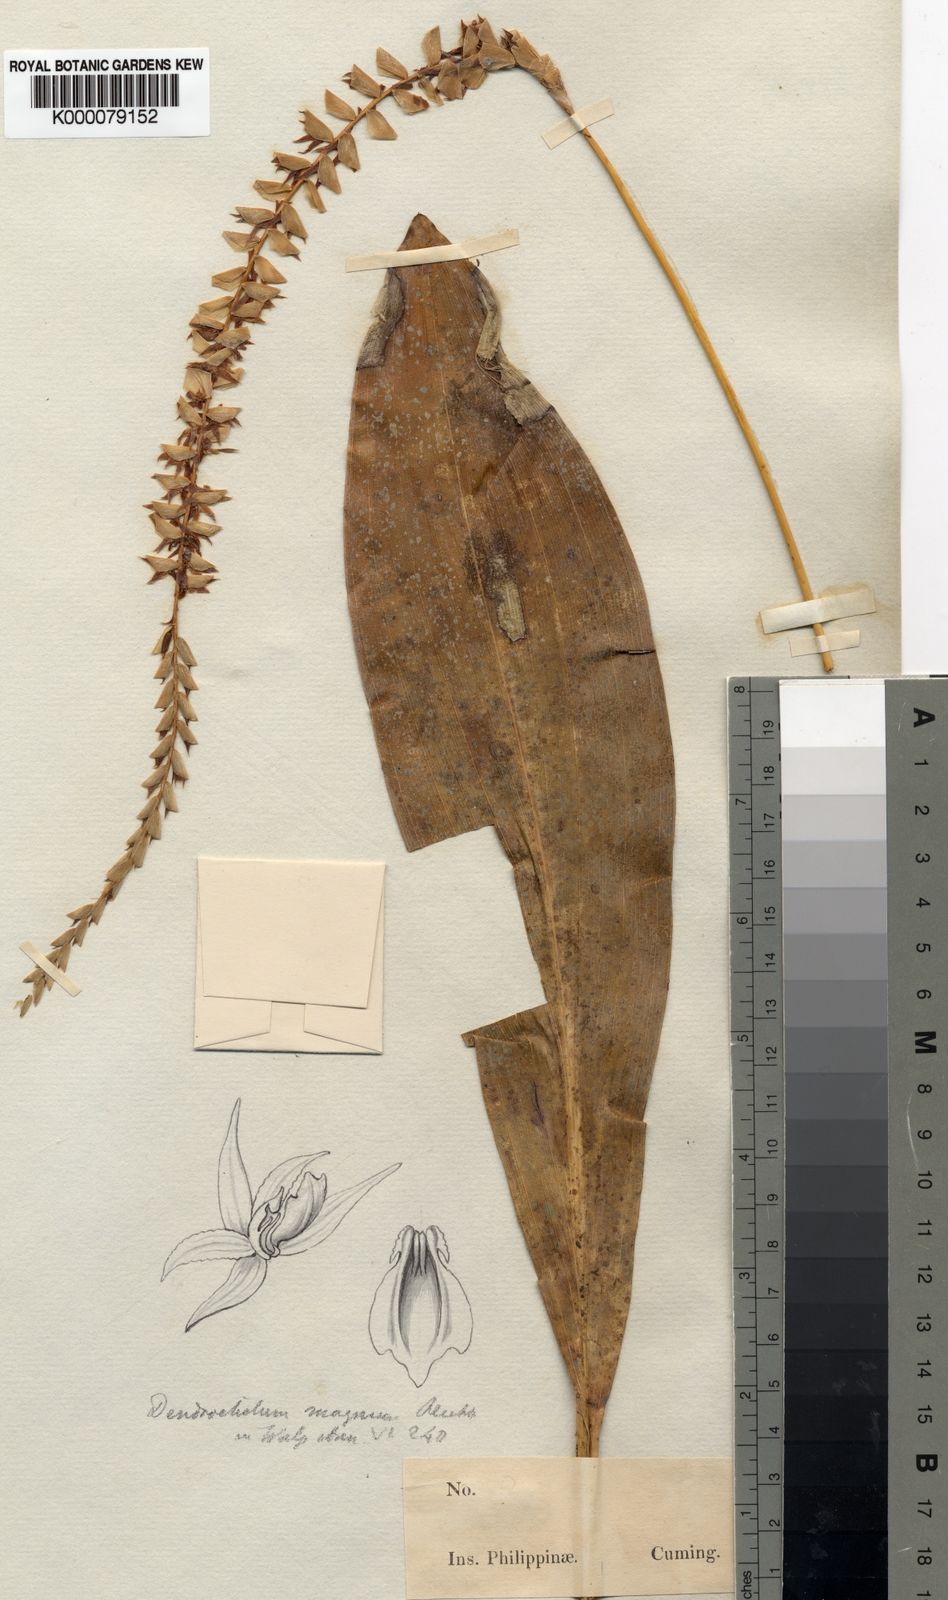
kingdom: Plantae
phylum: Tracheophyta
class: Liliopsida
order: Asparagales
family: Orchidaceae
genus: Coelogyne
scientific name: Coelogyne magna
